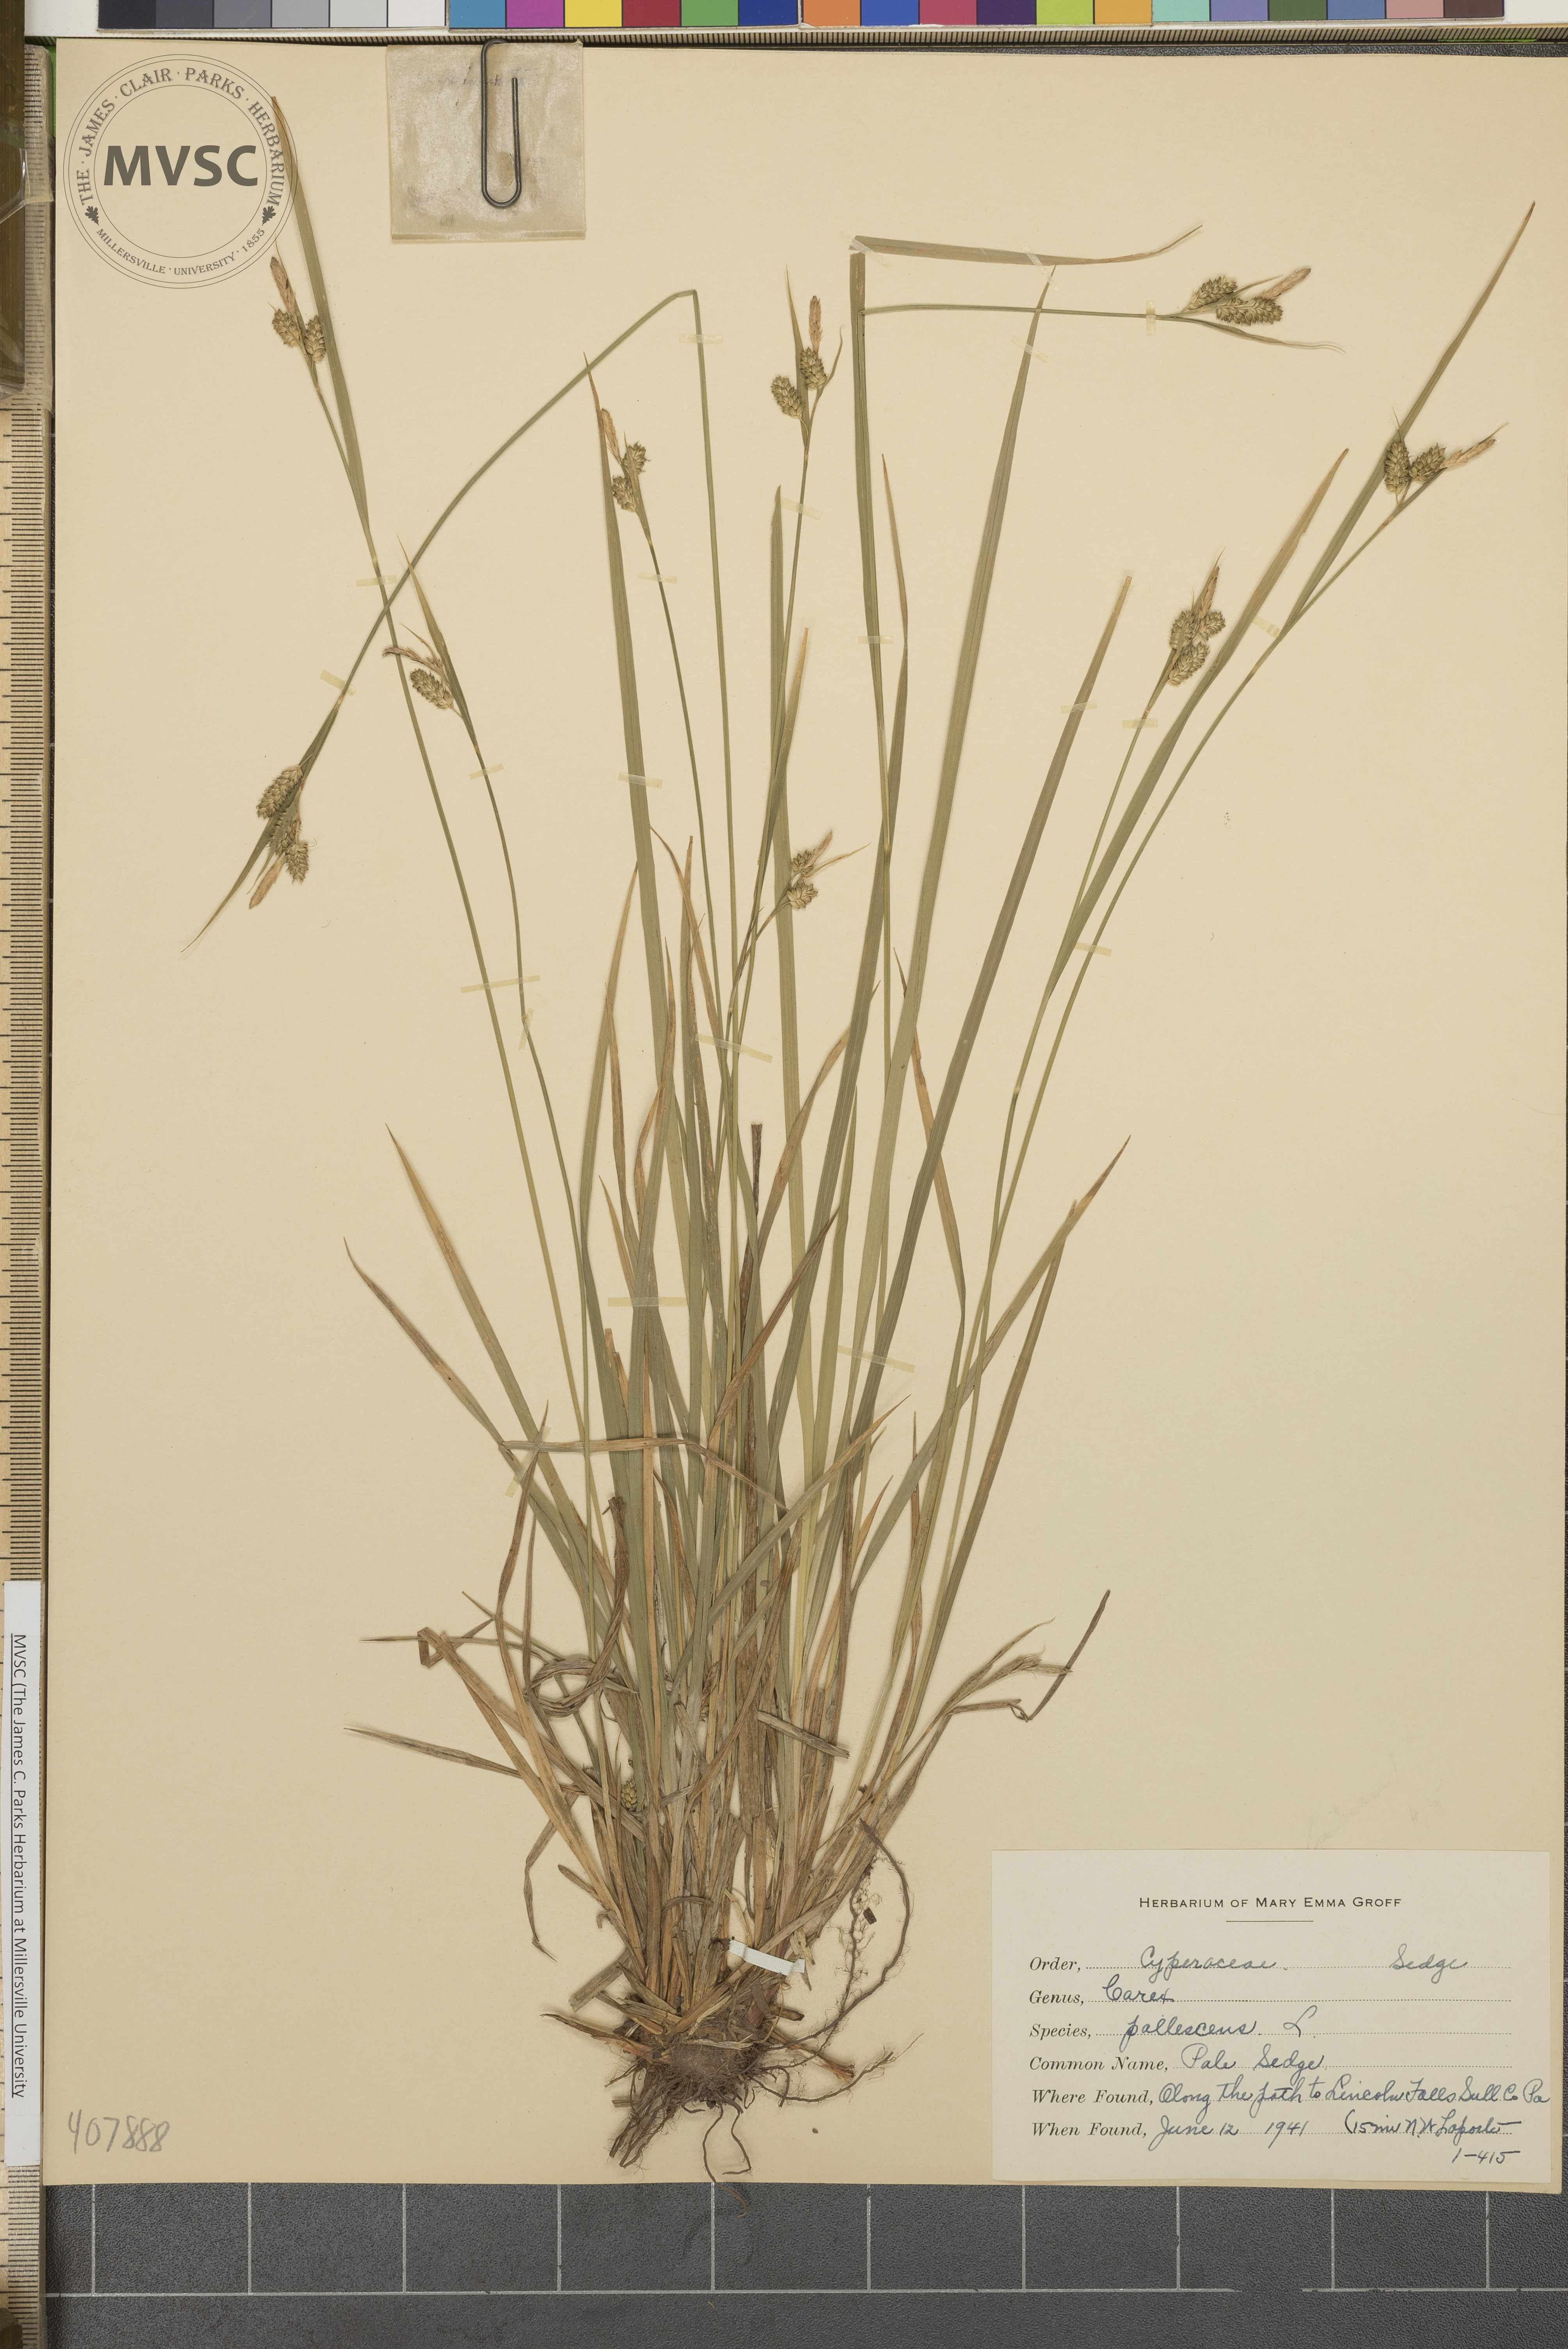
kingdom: Plantae
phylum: Tracheophyta
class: Liliopsida
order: Poales
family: Cyperaceae
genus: Carex
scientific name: Carex pallescens
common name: Pale Sedge
